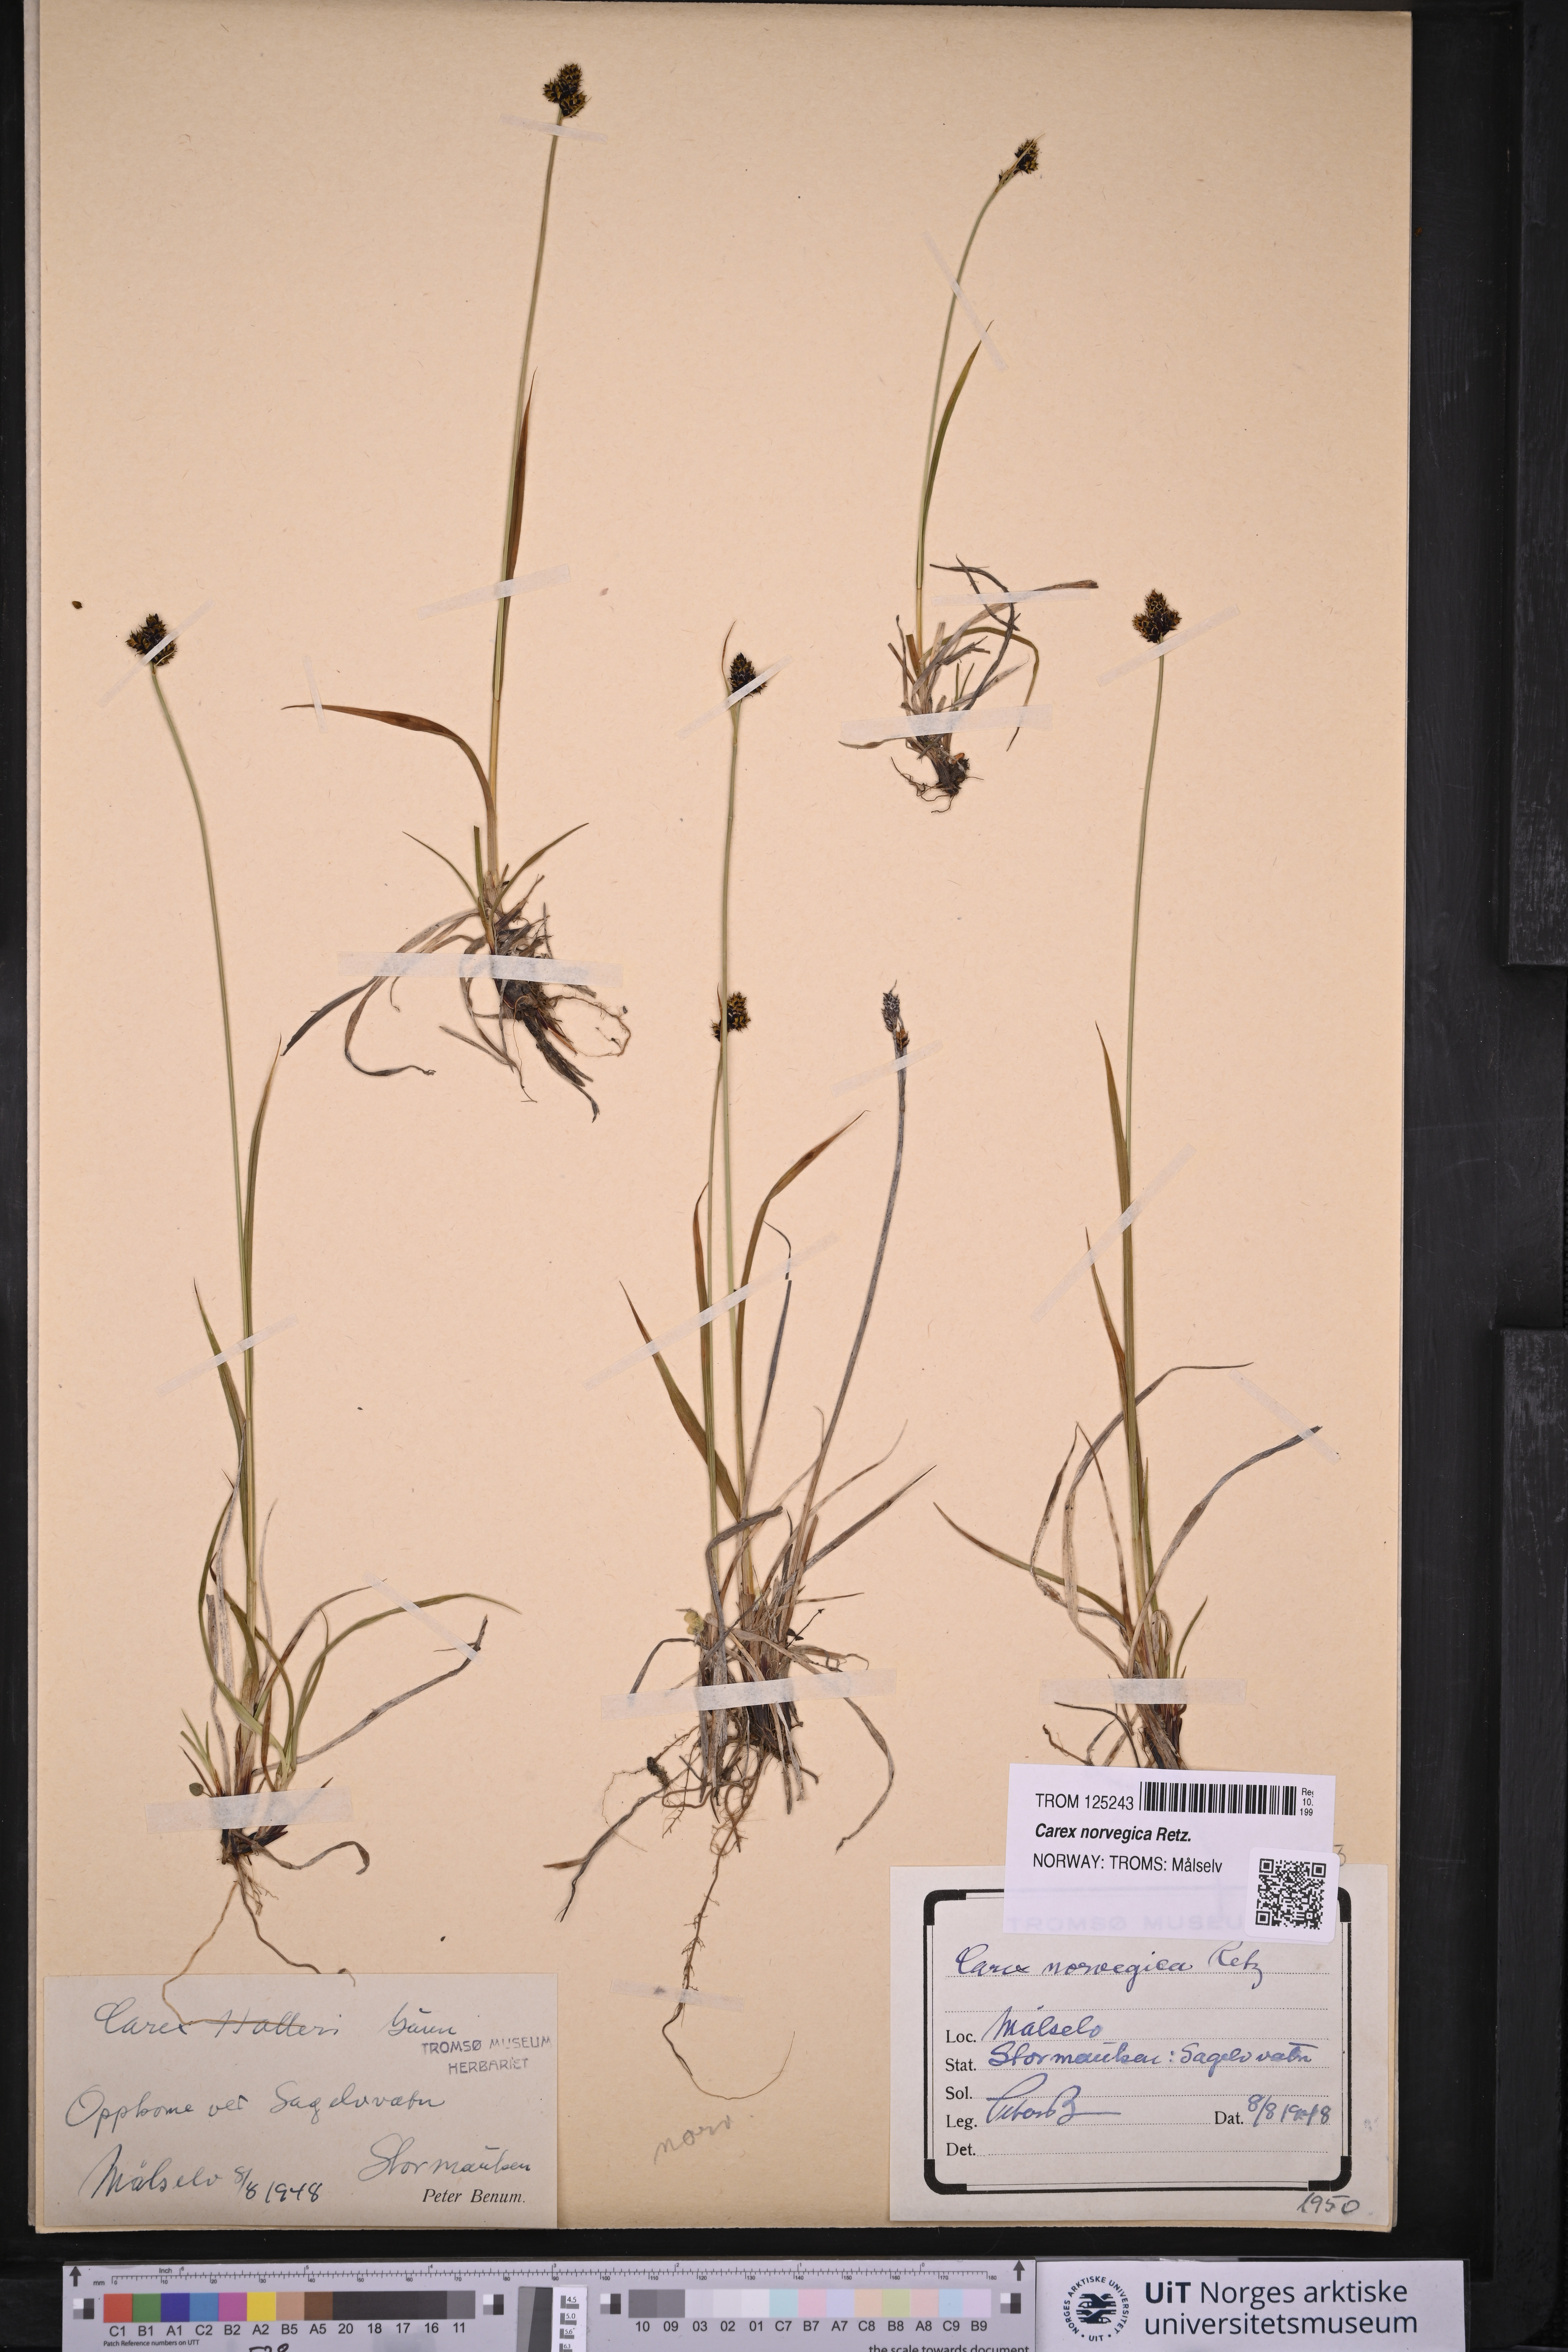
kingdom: Plantae
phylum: Tracheophyta
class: Liliopsida
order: Poales
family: Cyperaceae
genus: Carex
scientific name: Carex norvegica
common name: Close-headed alpine-sedge
